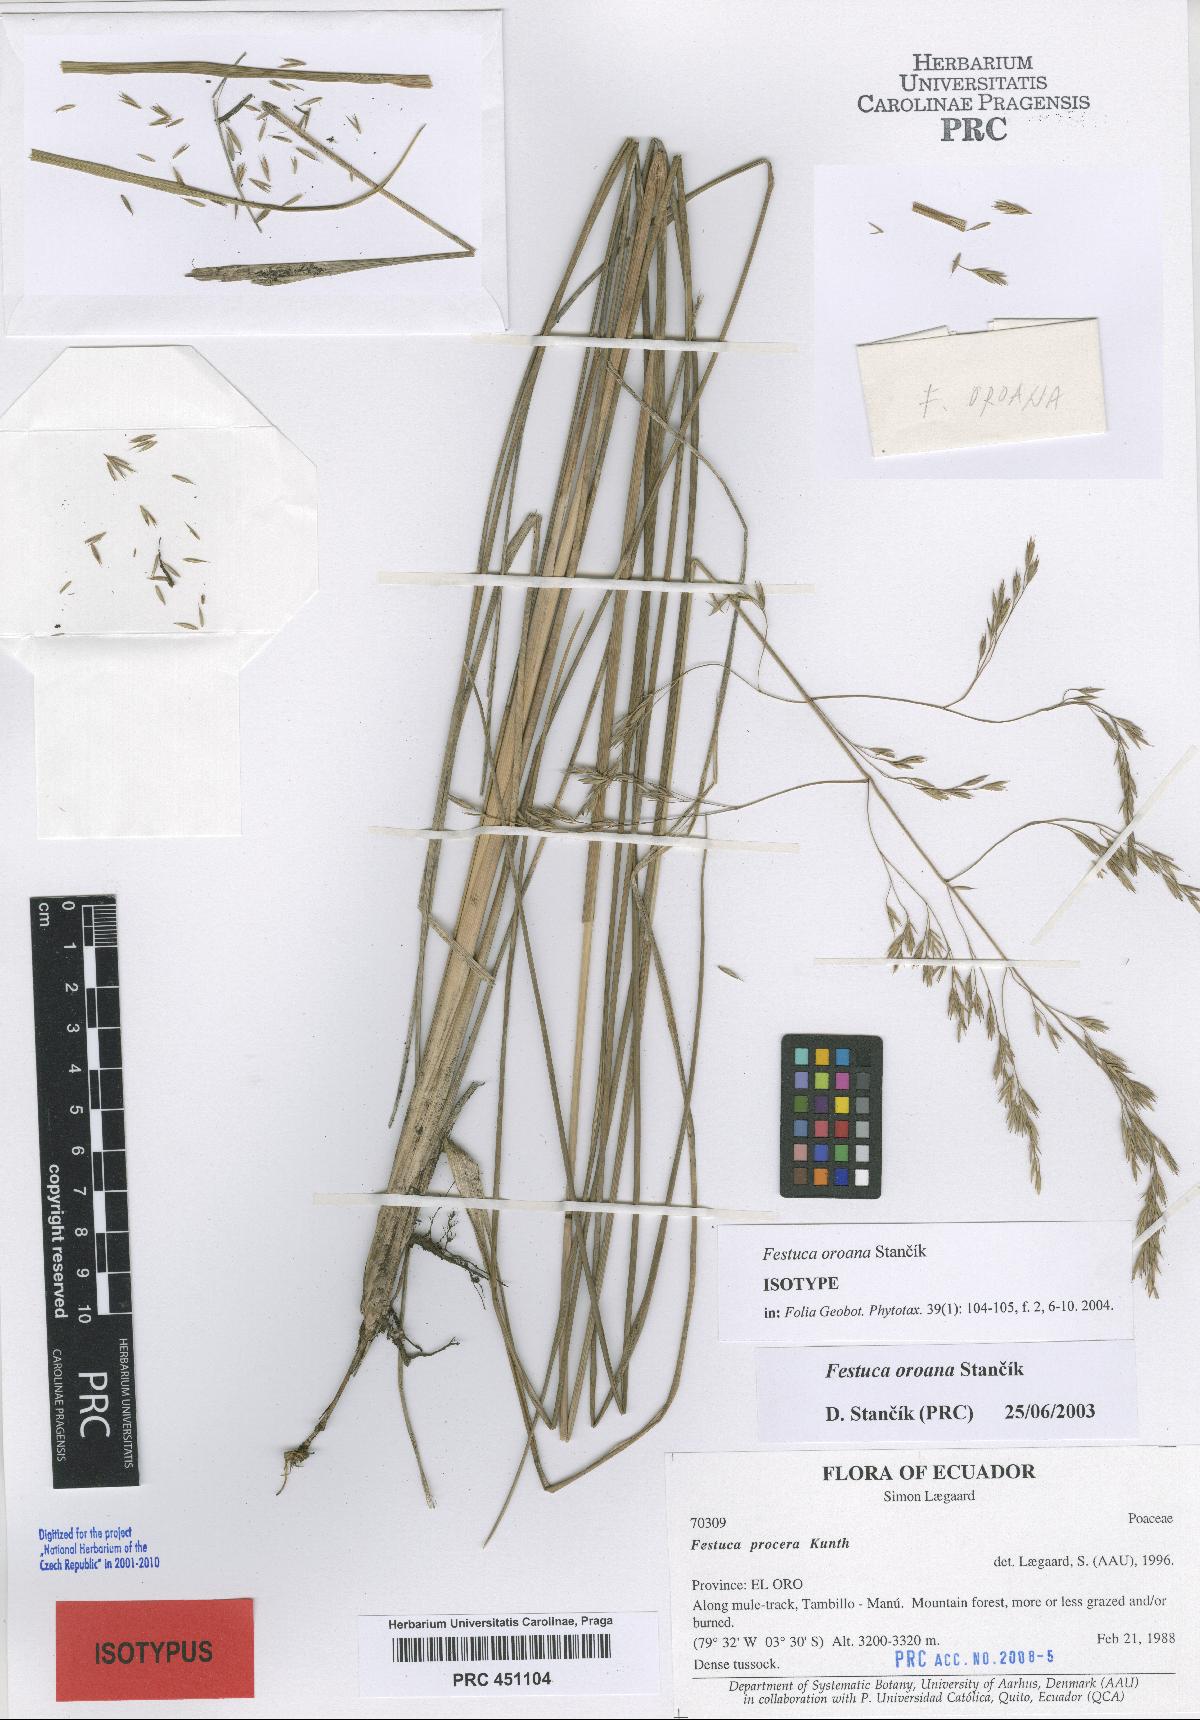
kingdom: Plantae
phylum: Tracheophyta
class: Liliopsida
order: Poales
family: Poaceae
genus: Festuca
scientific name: Festuca oroana
